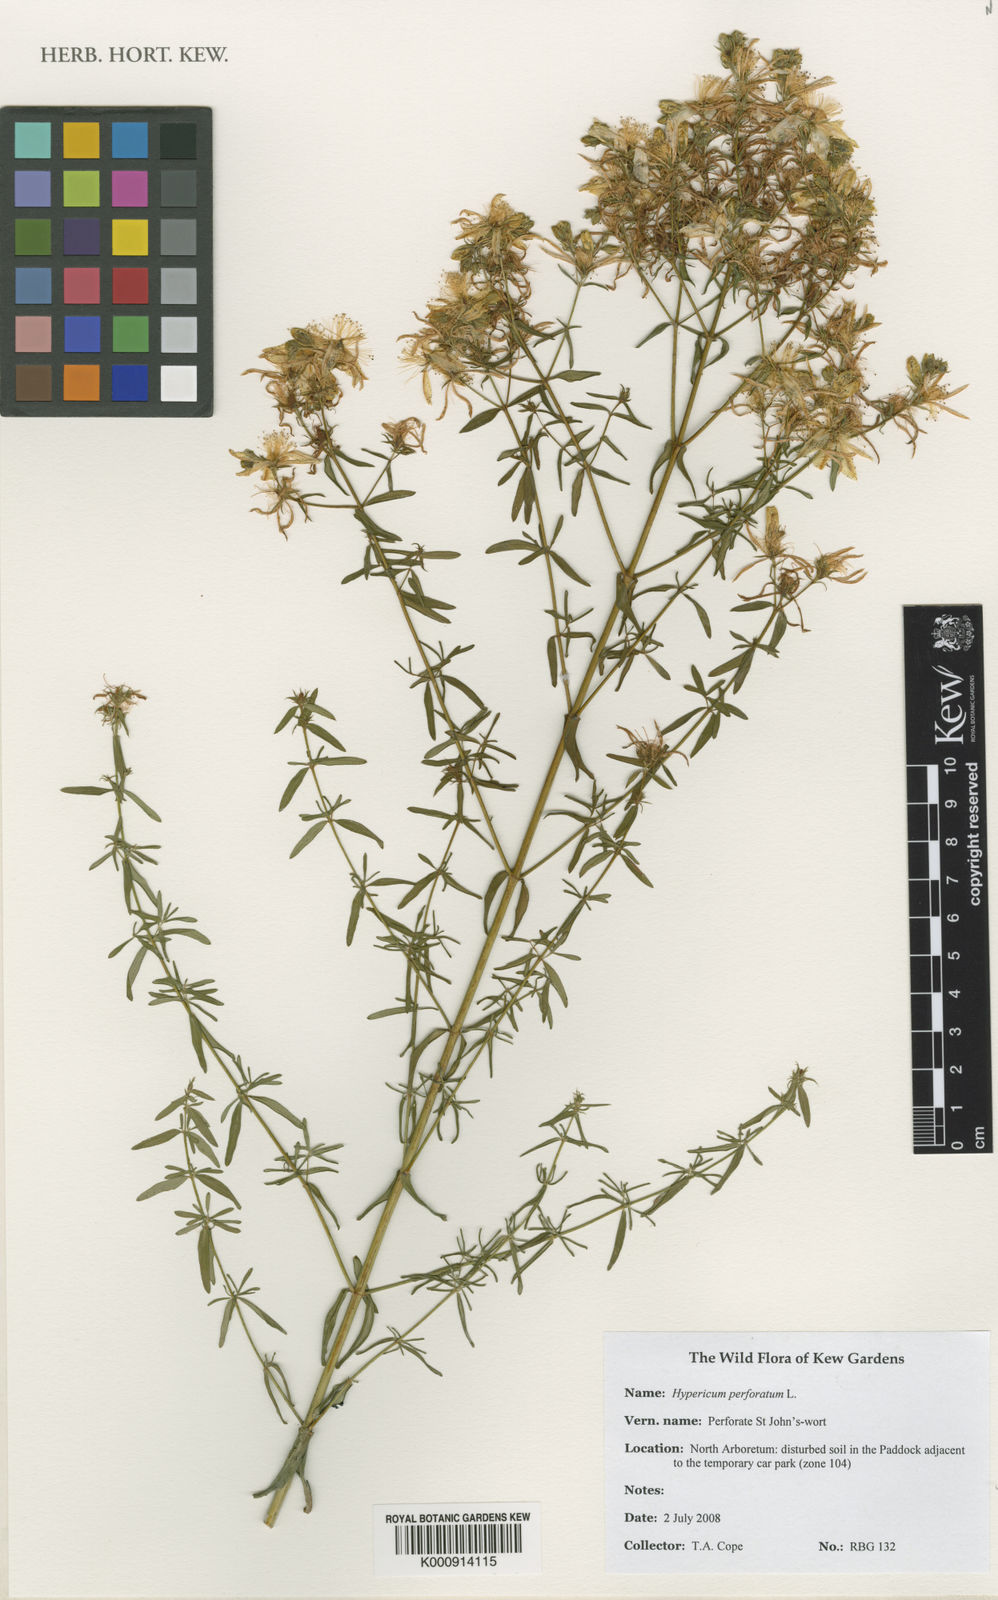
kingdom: Plantae
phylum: Tracheophyta
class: Magnoliopsida
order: Malpighiales
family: Hypericaceae
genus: Hypericum
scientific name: Hypericum perforatum
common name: Common st. johnswort
